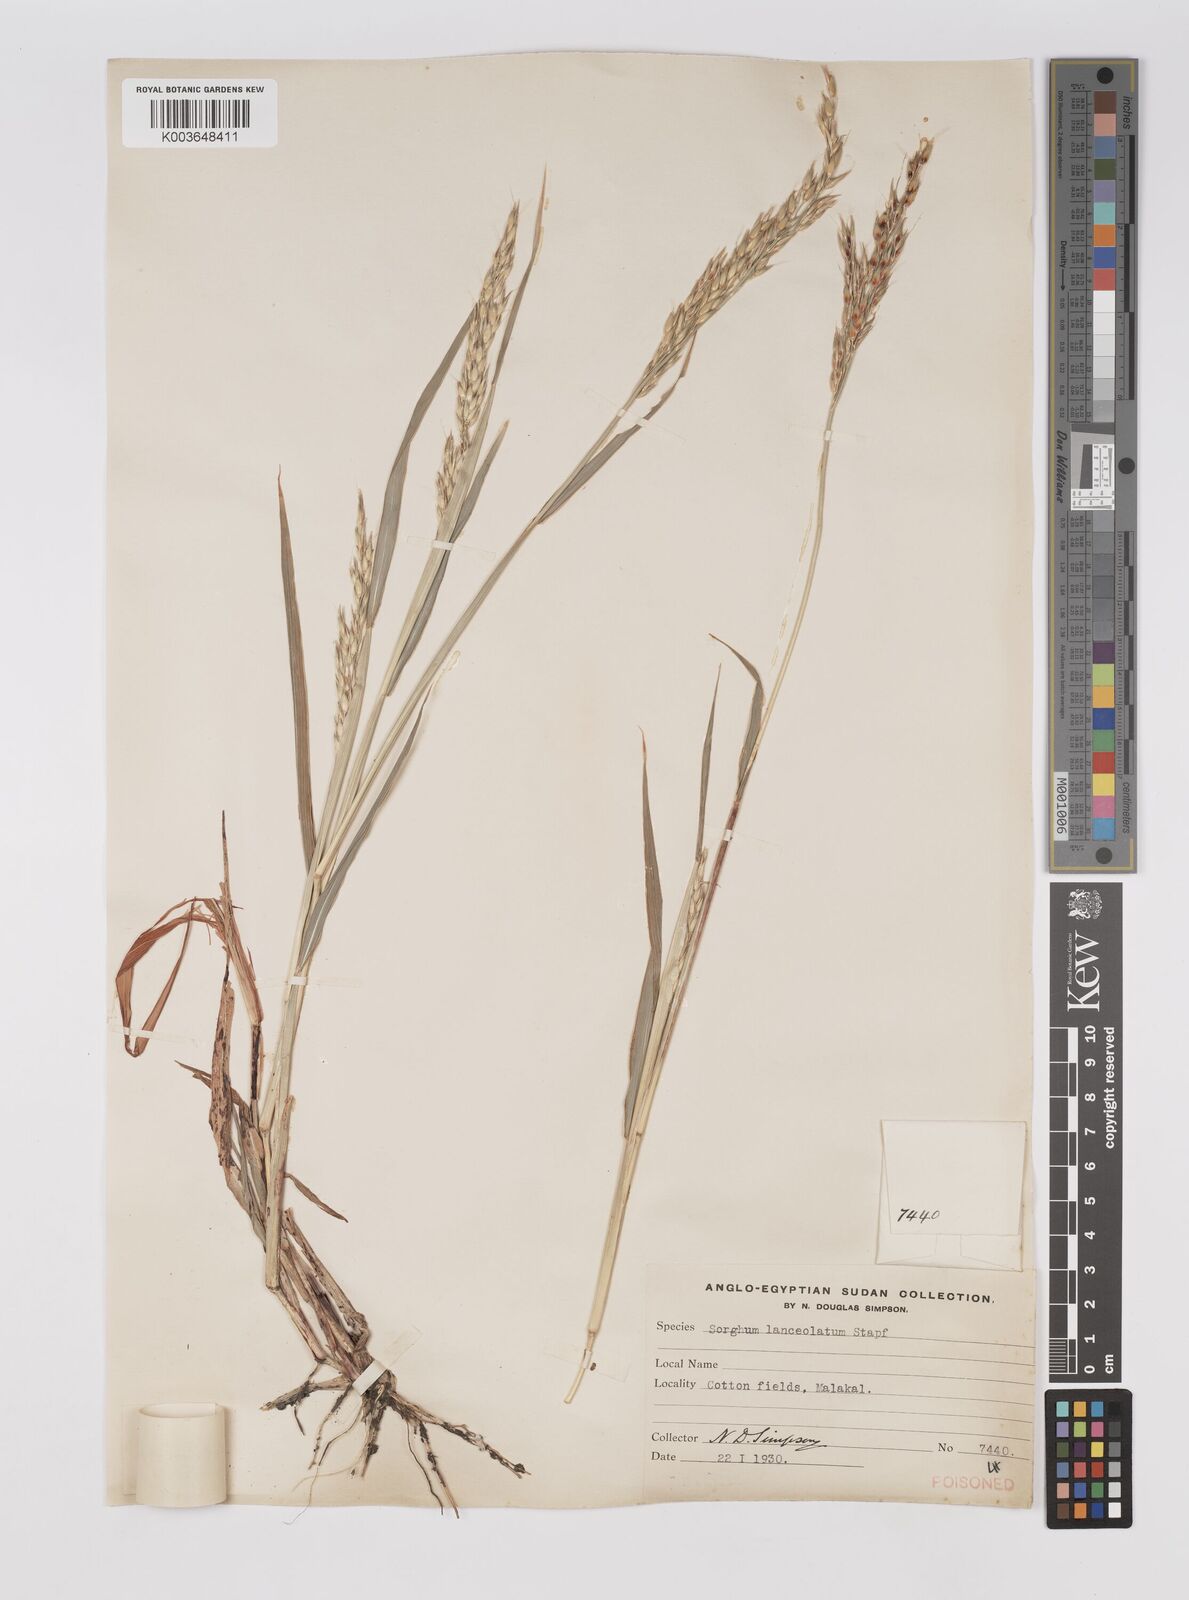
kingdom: Plantae
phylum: Tracheophyta
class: Liliopsida
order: Poales
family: Poaceae
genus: Sorghum
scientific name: Sorghum arundinaceum
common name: Sorghum
